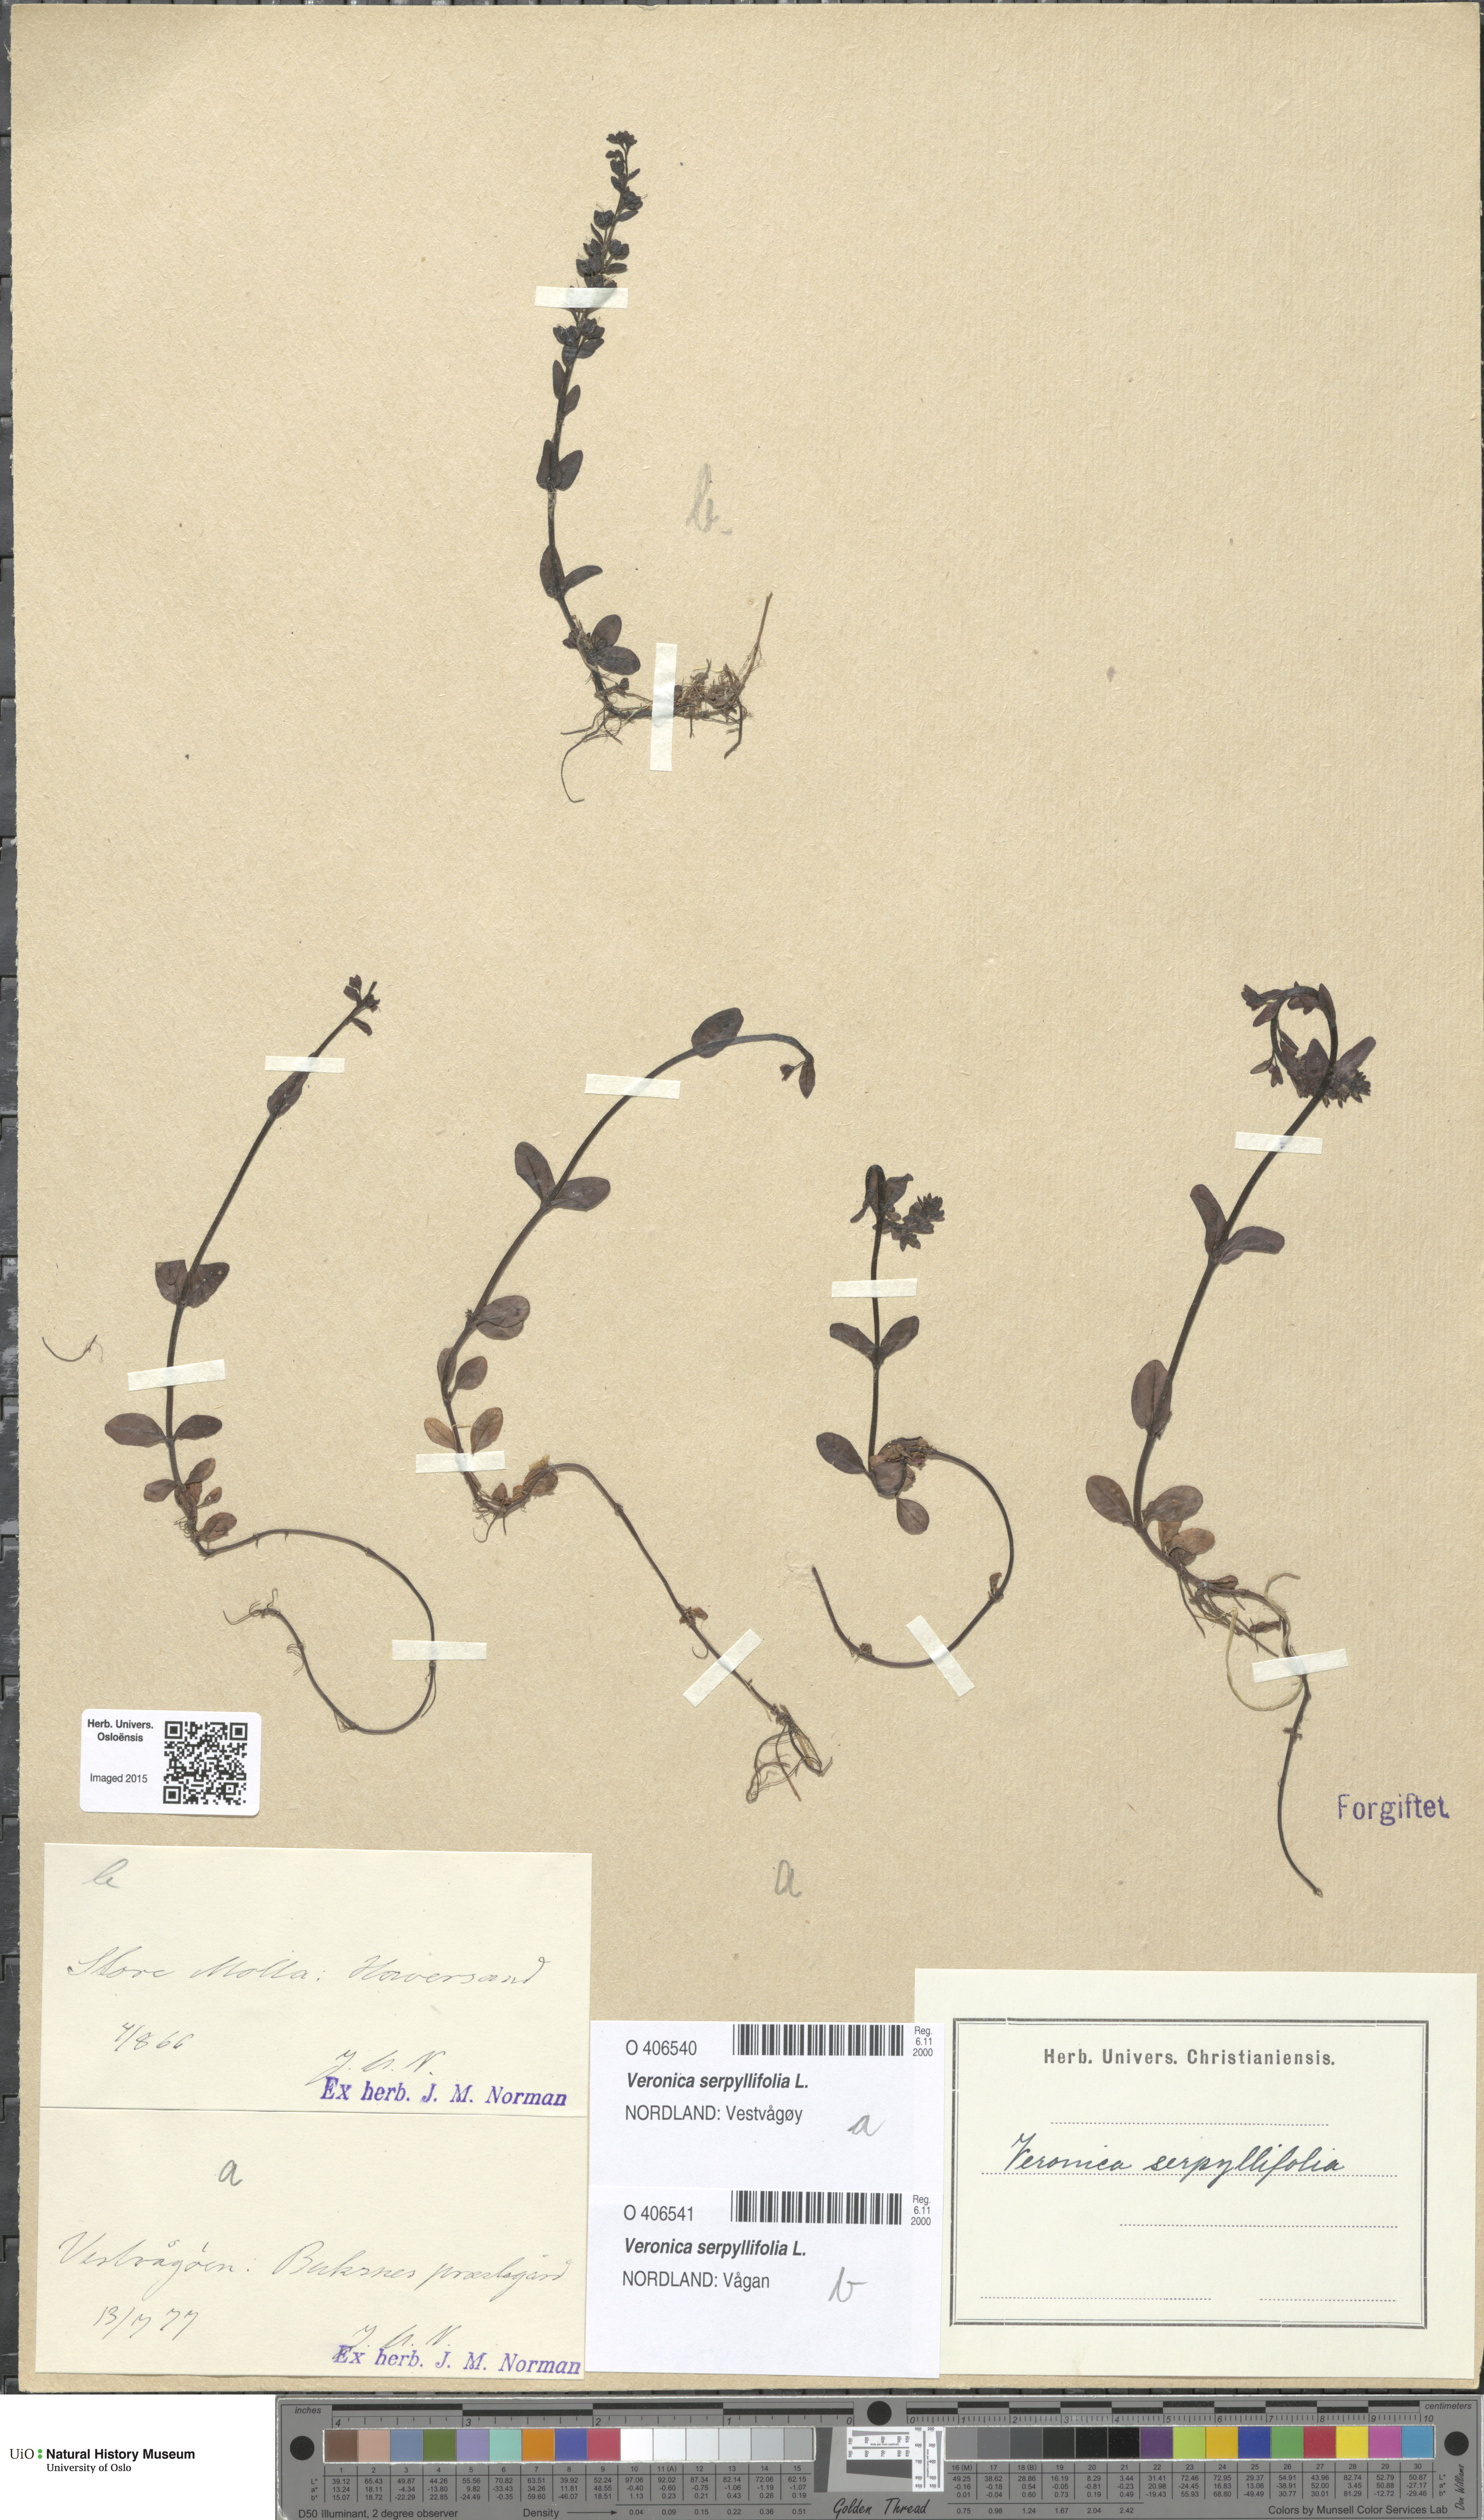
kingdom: Plantae
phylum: Tracheophyta
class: Magnoliopsida
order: Lamiales
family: Plantaginaceae
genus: Veronica
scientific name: Veronica serpyllifolia
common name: Thyme-leaved speedwell
